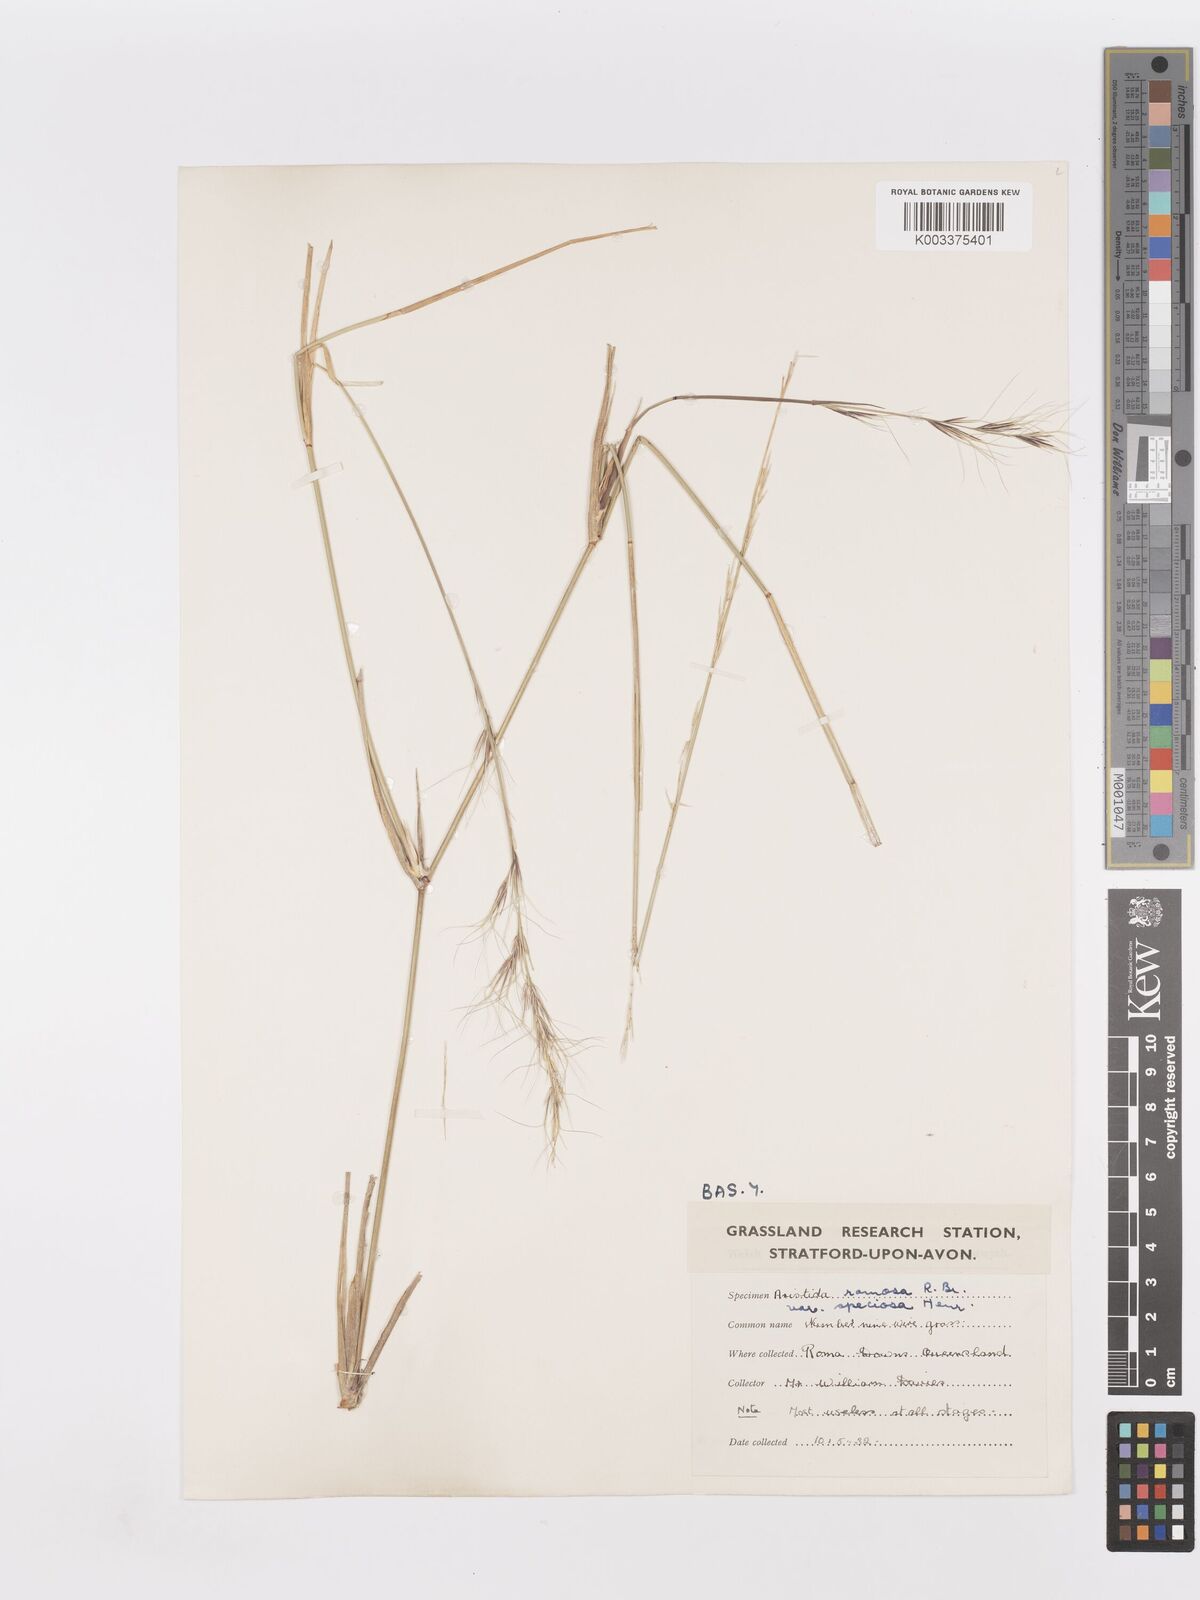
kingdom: Plantae
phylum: Tracheophyta
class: Liliopsida
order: Poales
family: Poaceae
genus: Aristida
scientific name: Aristida ramosa
